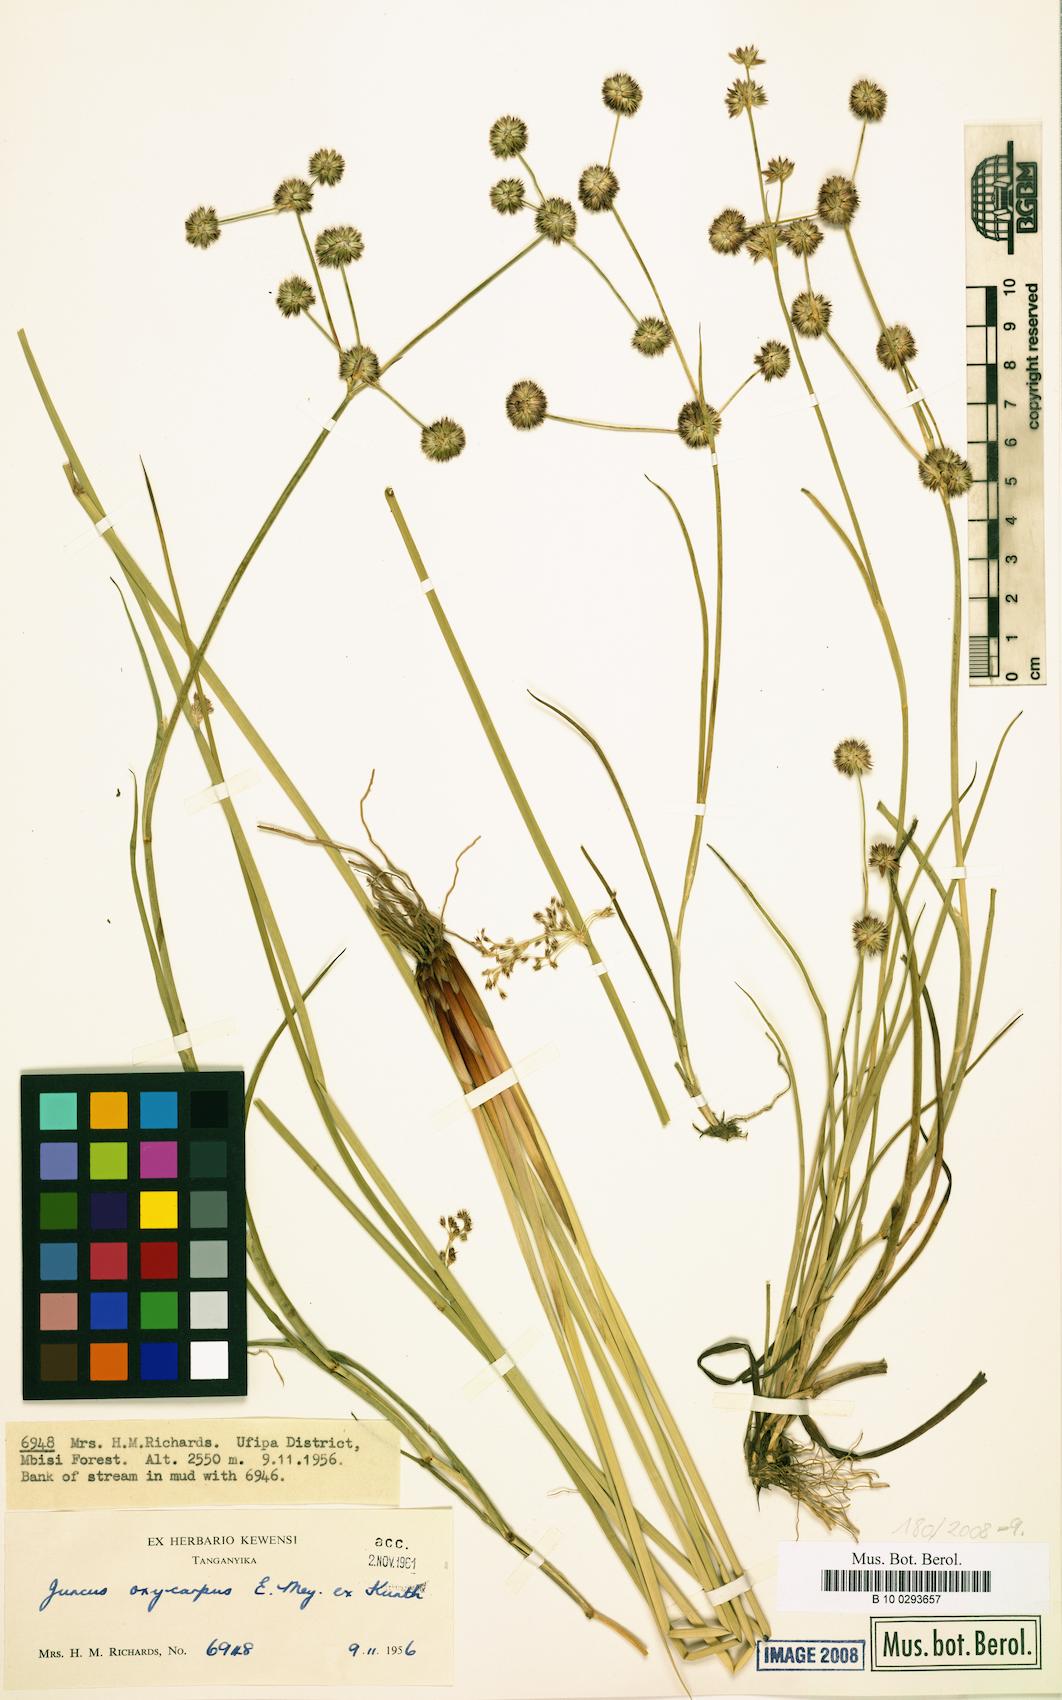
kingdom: Plantae
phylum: Tracheophyta
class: Liliopsida
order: Poales
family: Juncaceae
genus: Juncus
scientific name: Juncus oxycarpus
